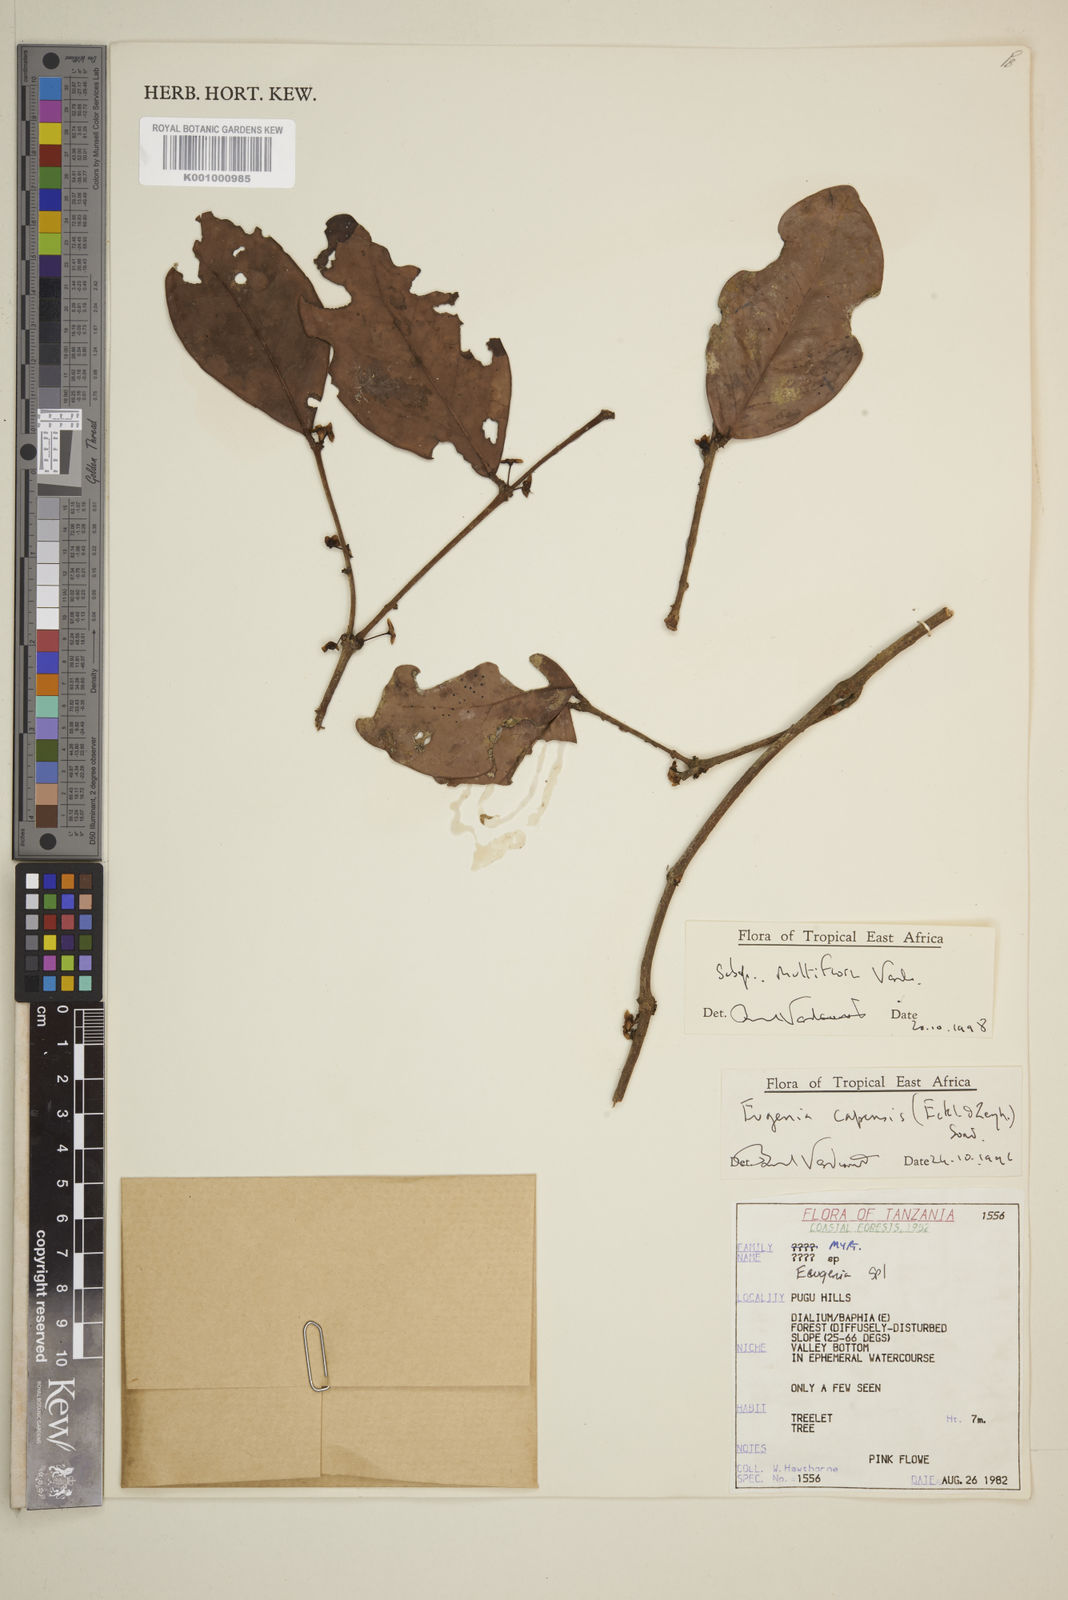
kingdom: Plantae
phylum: Tracheophyta
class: Magnoliopsida
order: Myrtales
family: Myrtaceae
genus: Eugenia
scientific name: Eugenia capensis
